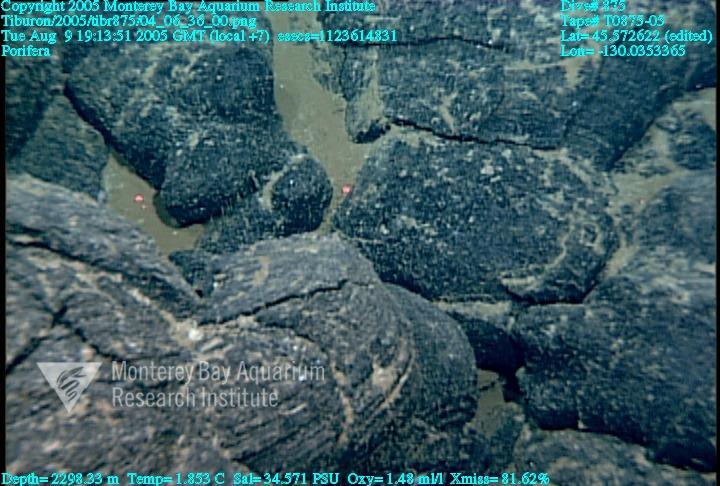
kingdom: Animalia
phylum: Porifera
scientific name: Porifera
